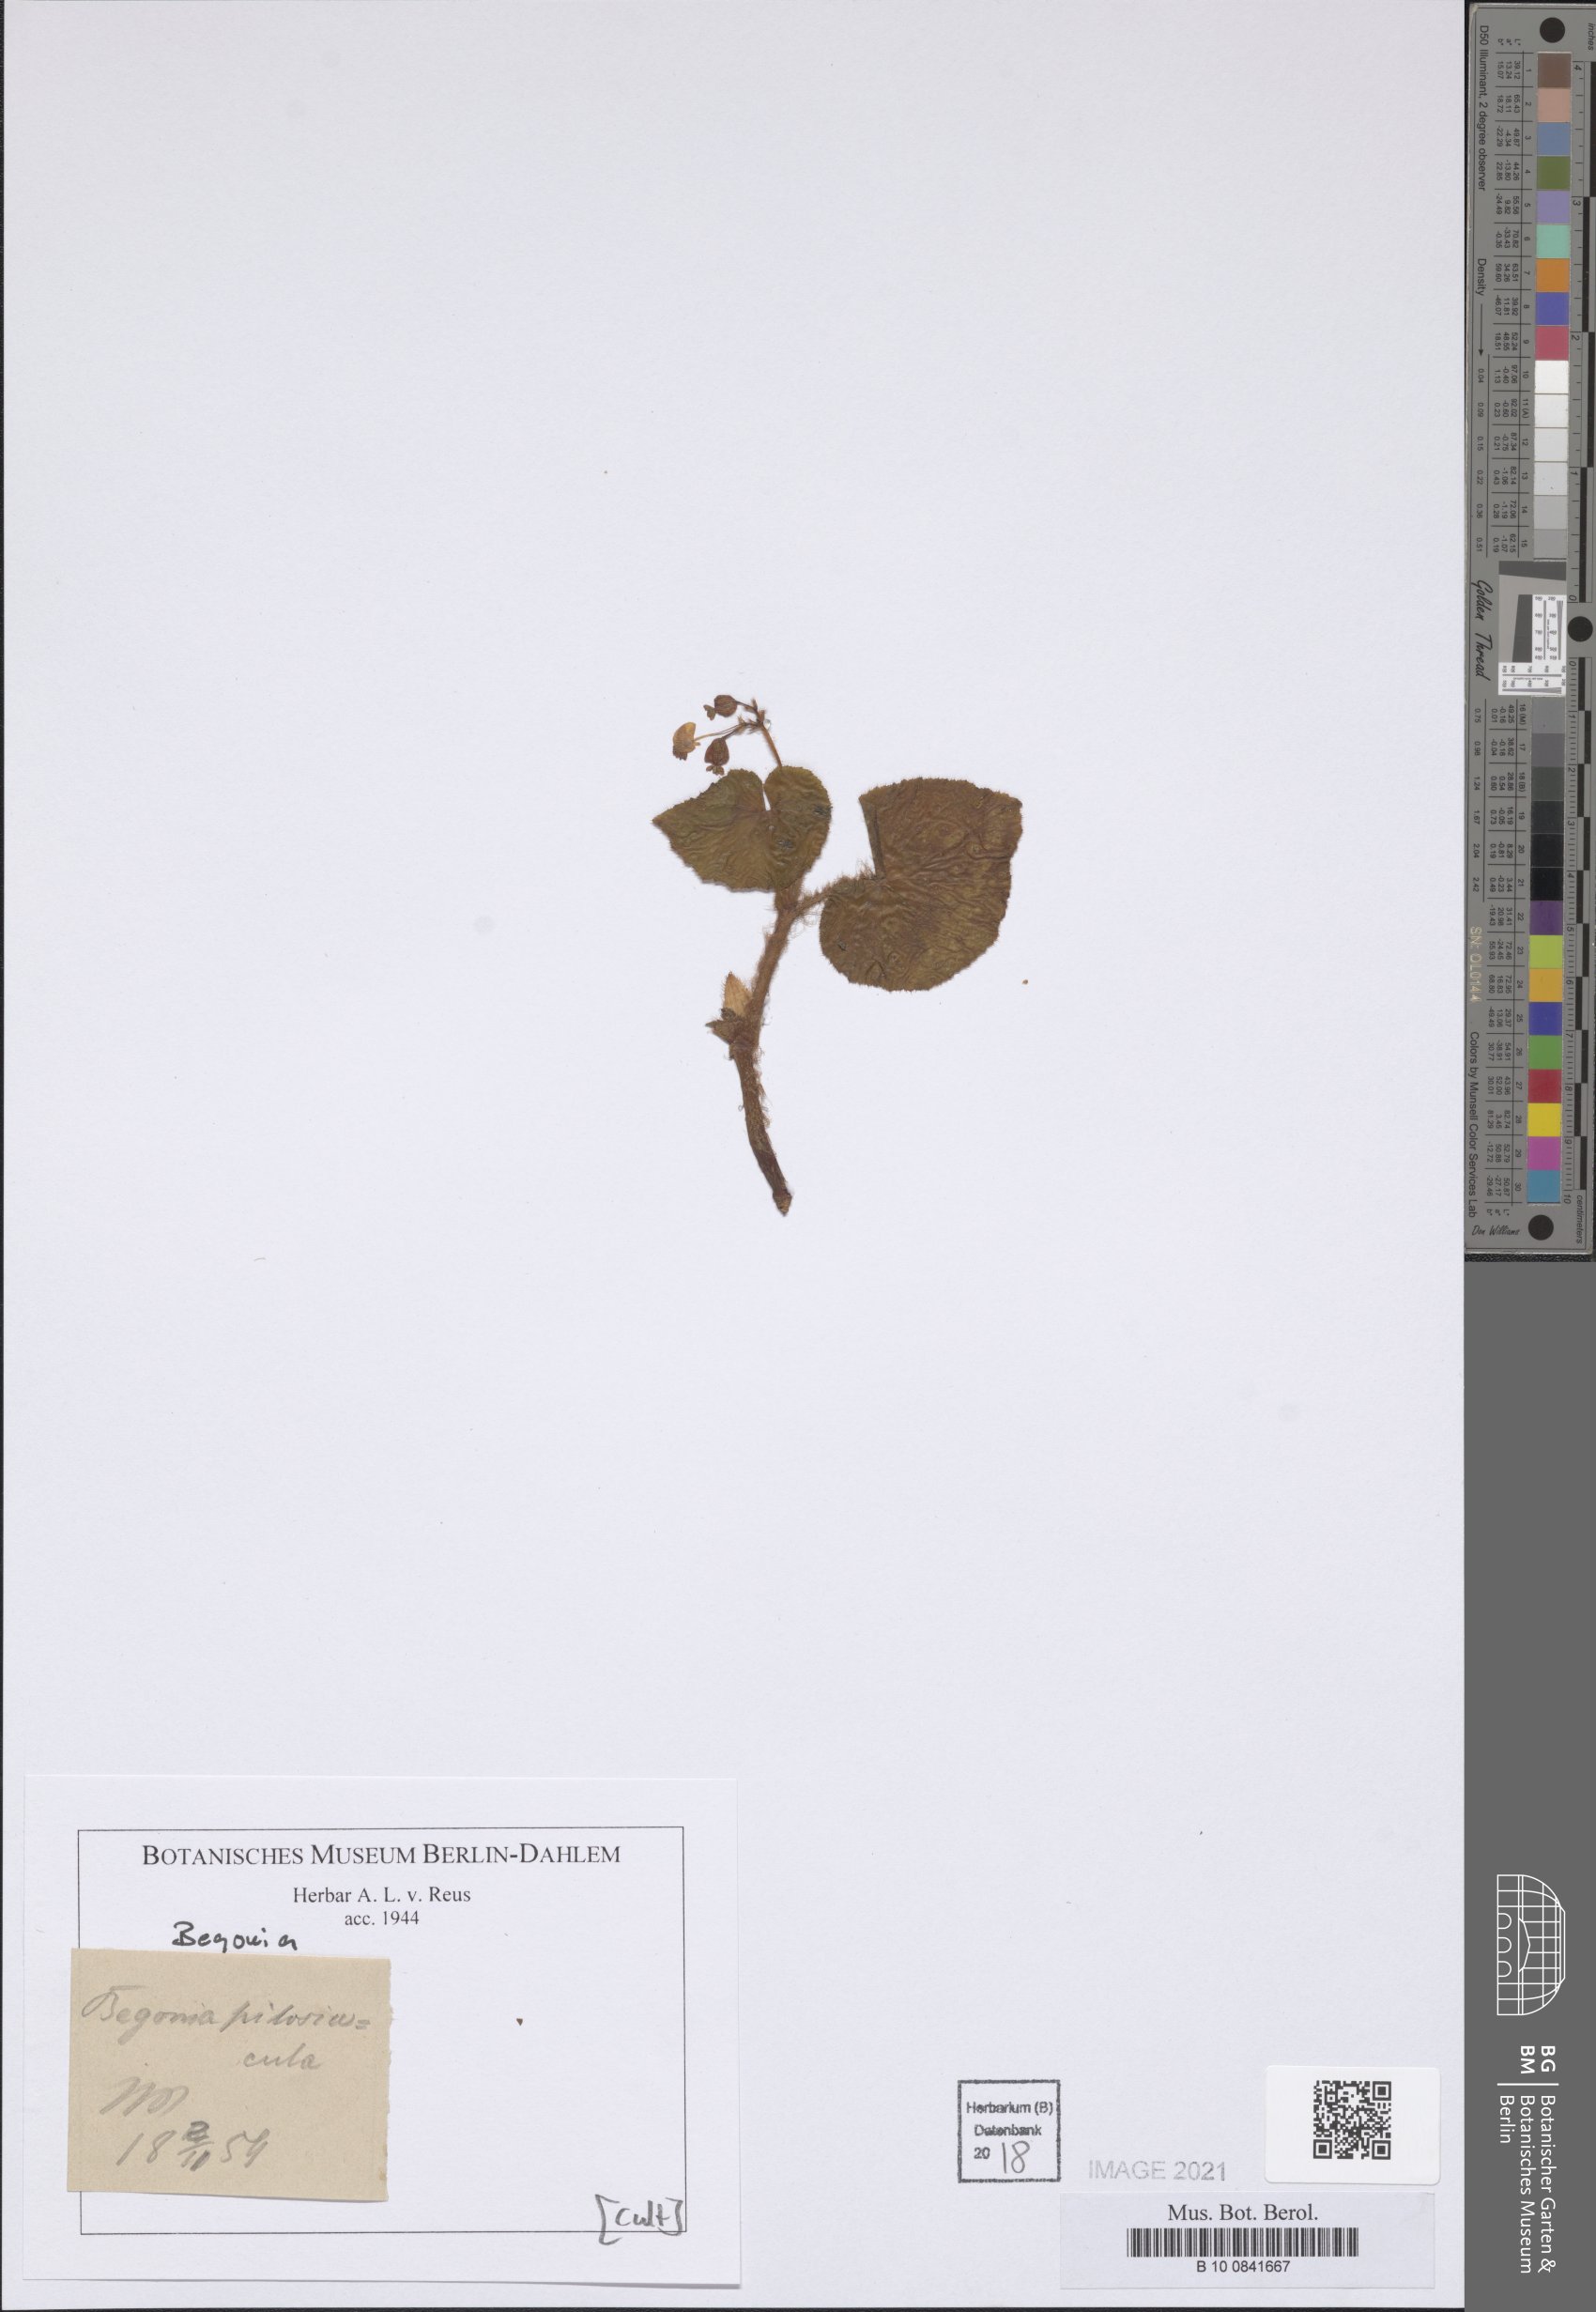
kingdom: Plantae
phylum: Tracheophyta
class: Magnoliopsida
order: Cucurbitales
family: Begoniaceae
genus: Begonia
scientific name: Begonia
